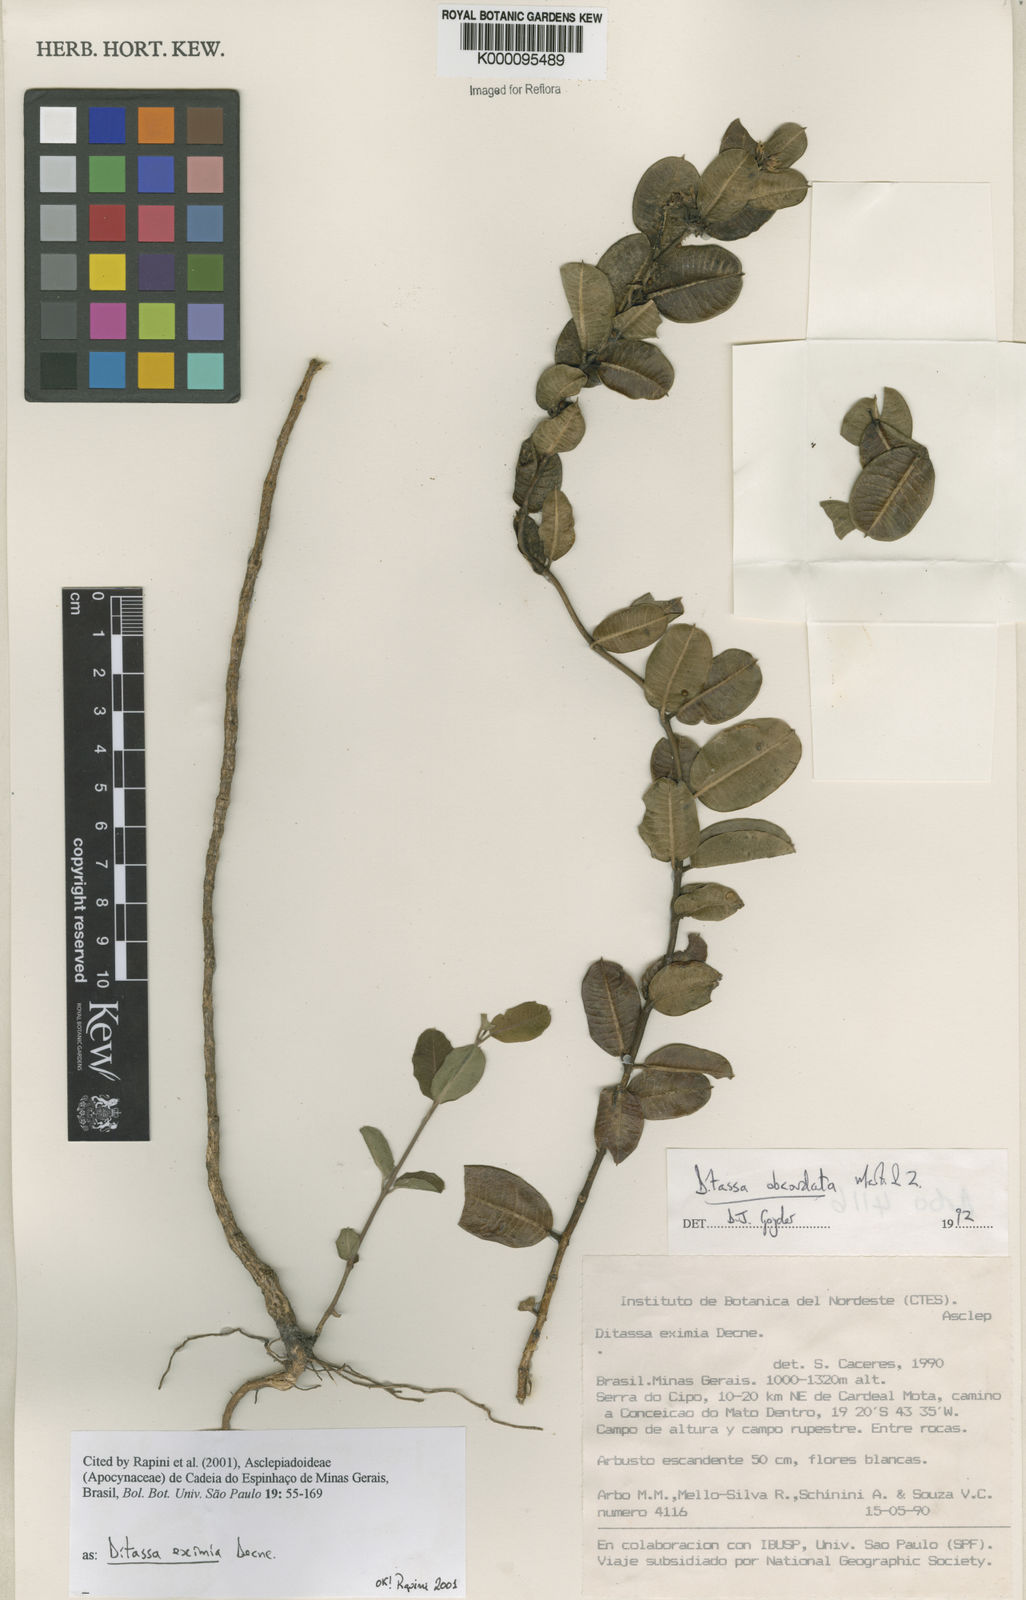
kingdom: Plantae
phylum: Tracheophyta
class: Magnoliopsida
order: Gentianales
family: Apocynaceae
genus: Ditassa
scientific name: Ditassa eximia
